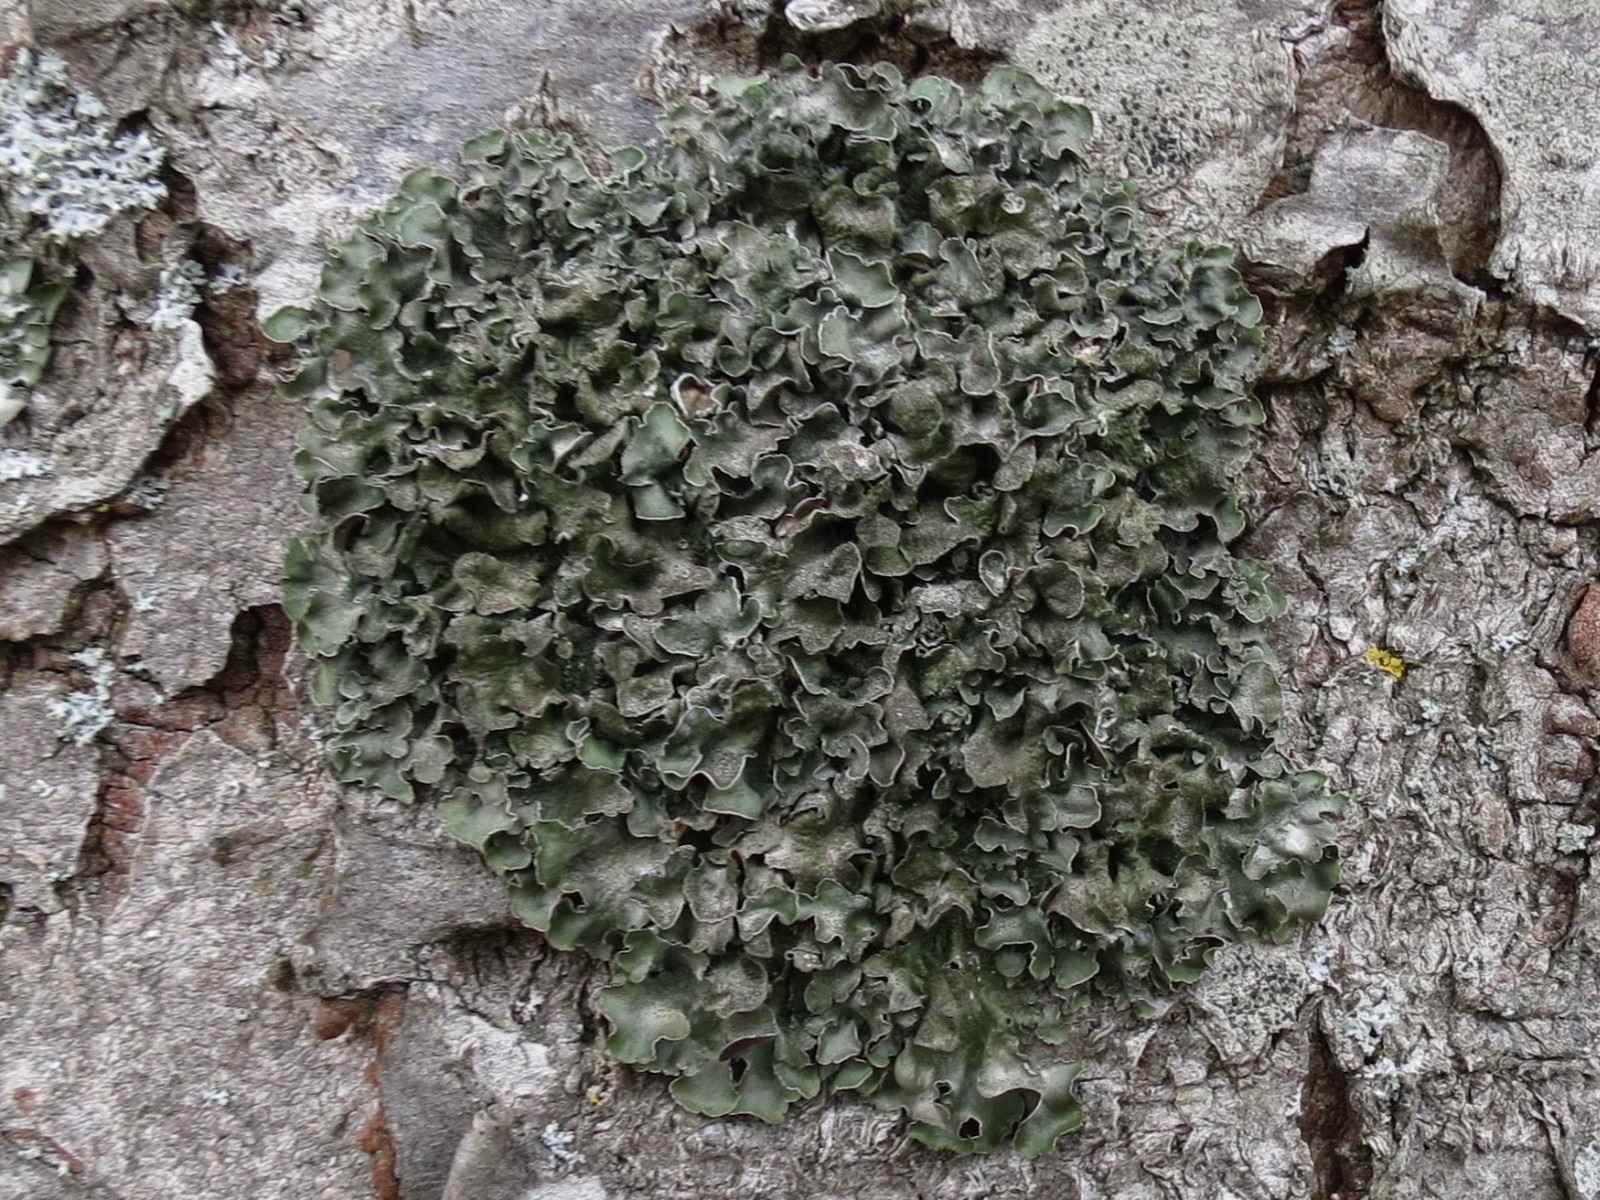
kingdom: Fungi
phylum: Ascomycota
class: Lecanoromycetes
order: Lecanorales
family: Parmeliaceae
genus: Pleurosticta
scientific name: Pleurosticta acetabulum
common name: stor skållav
